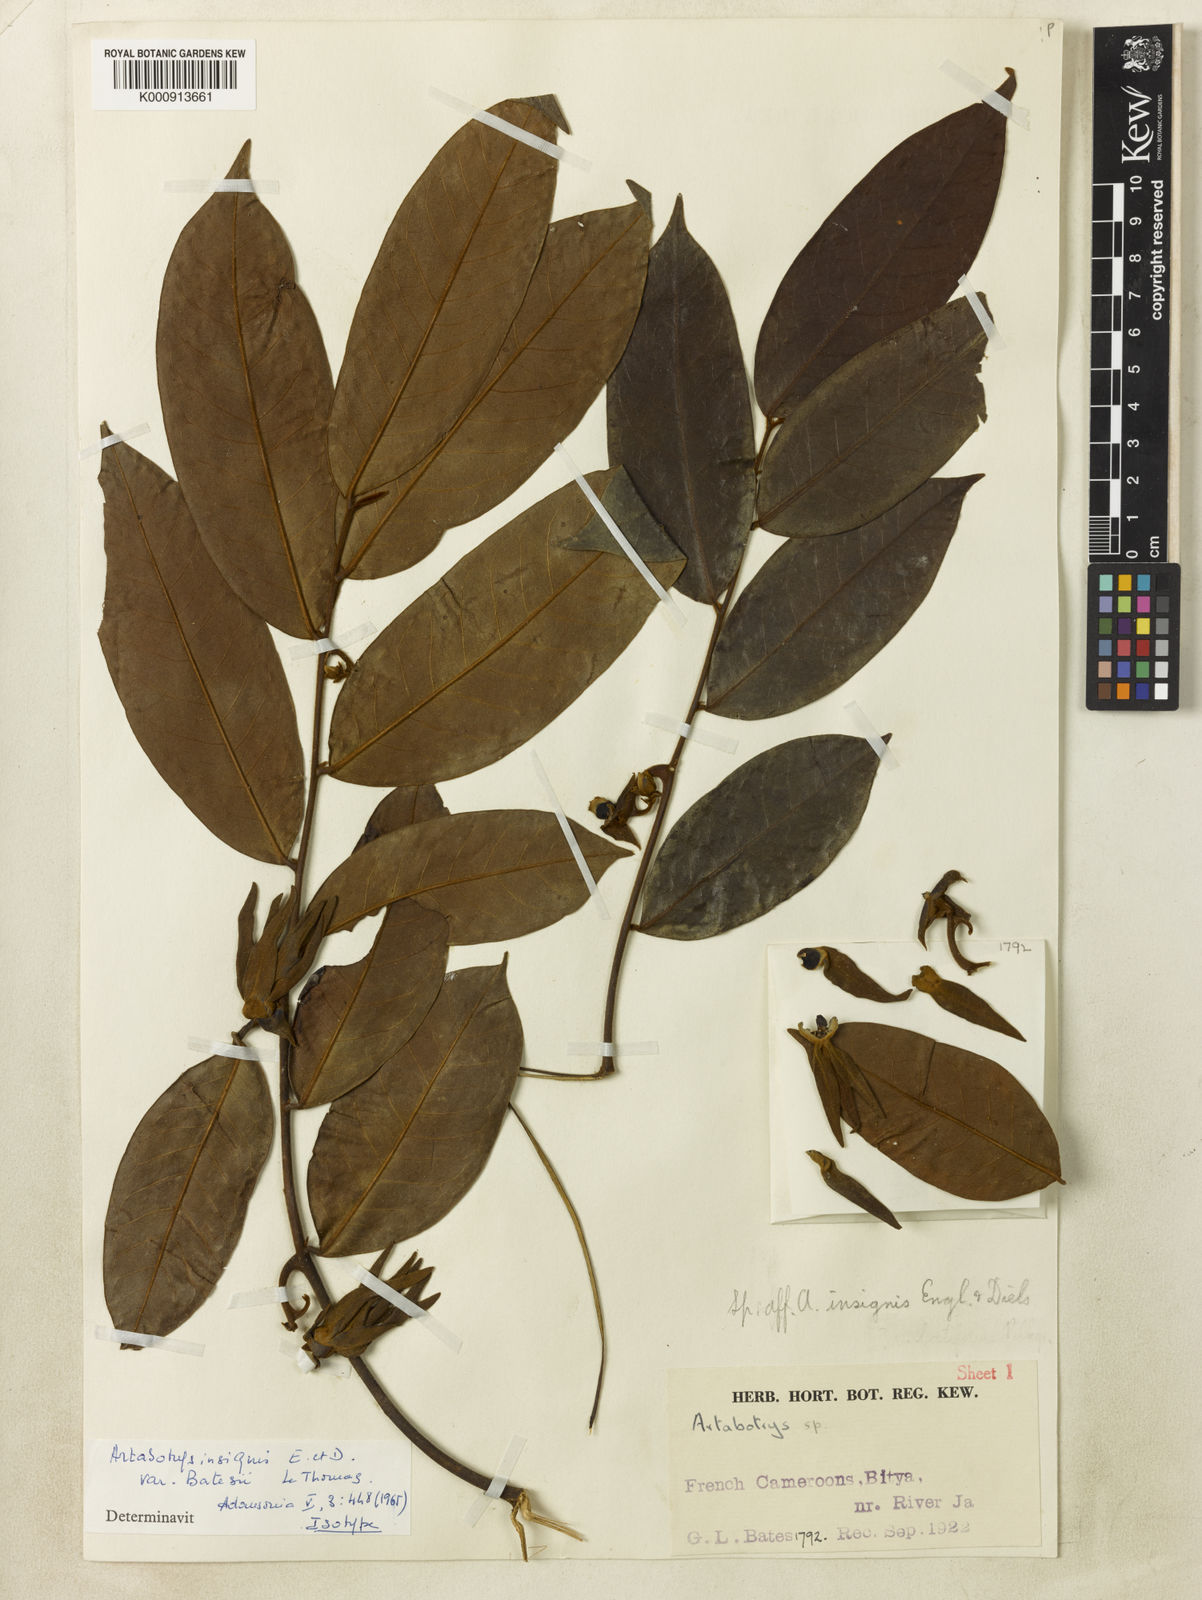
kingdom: Plantae
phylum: Tracheophyta
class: Magnoliopsida
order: Magnoliales
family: Annonaceae
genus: Artabotrys
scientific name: Artabotrys insignis
